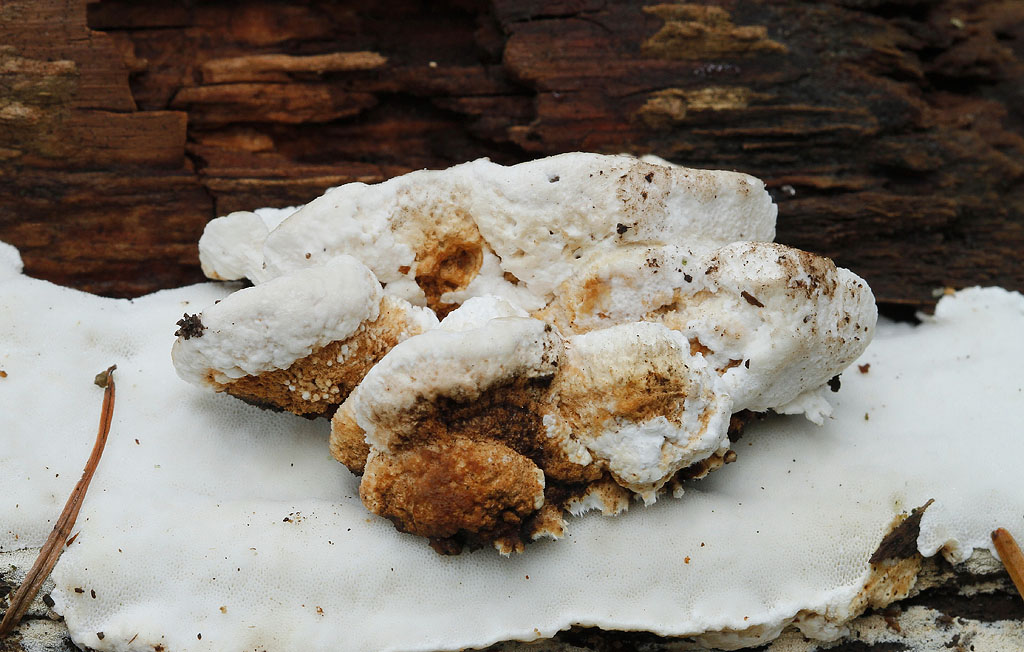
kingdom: Fungi
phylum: Basidiomycota
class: Agaricomycetes
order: Polyporales
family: Fomitopsidaceae
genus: Neoantrodia
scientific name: Neoantrodia serialis
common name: række-sejporesvamp
